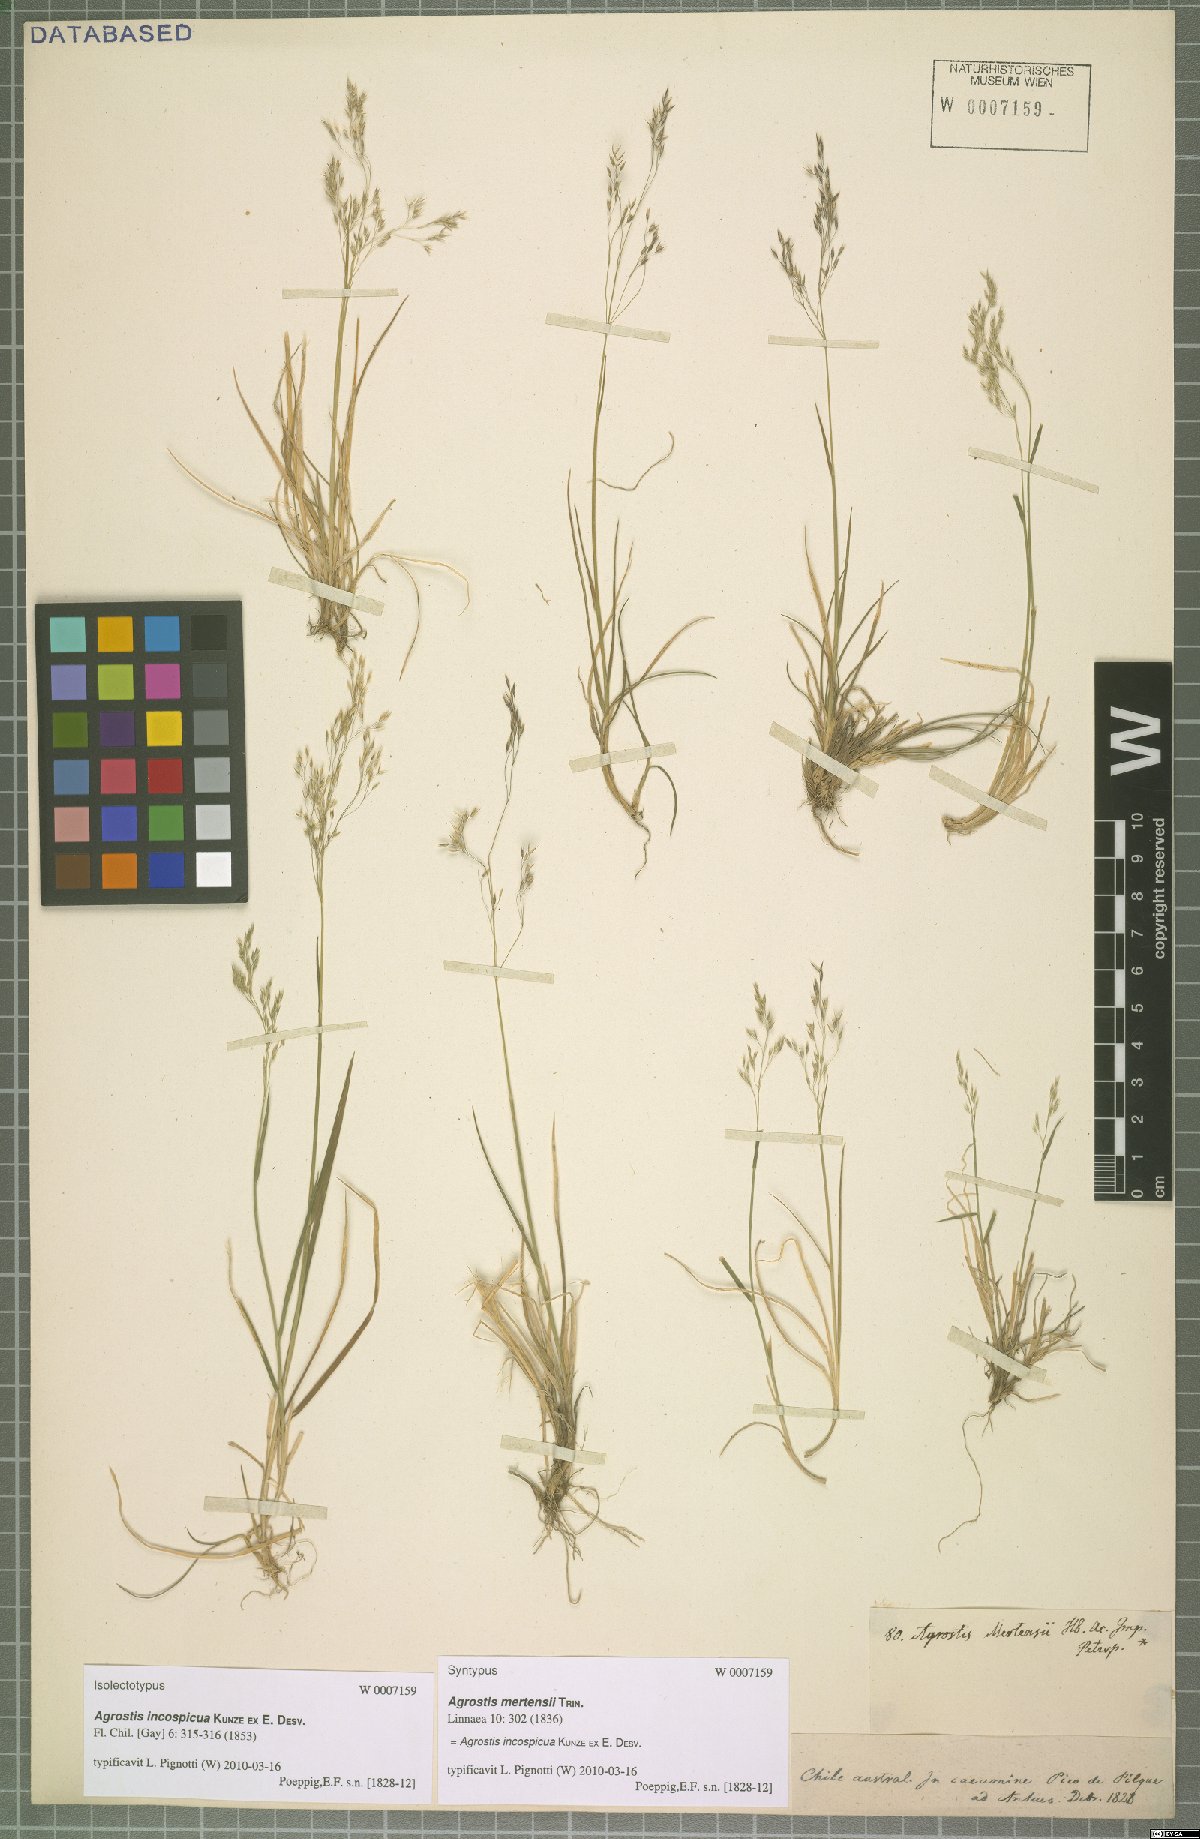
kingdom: Plantae
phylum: Tracheophyta
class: Liliopsida
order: Poales
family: Poaceae
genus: Agrostis
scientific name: Agrostis inconspicua
